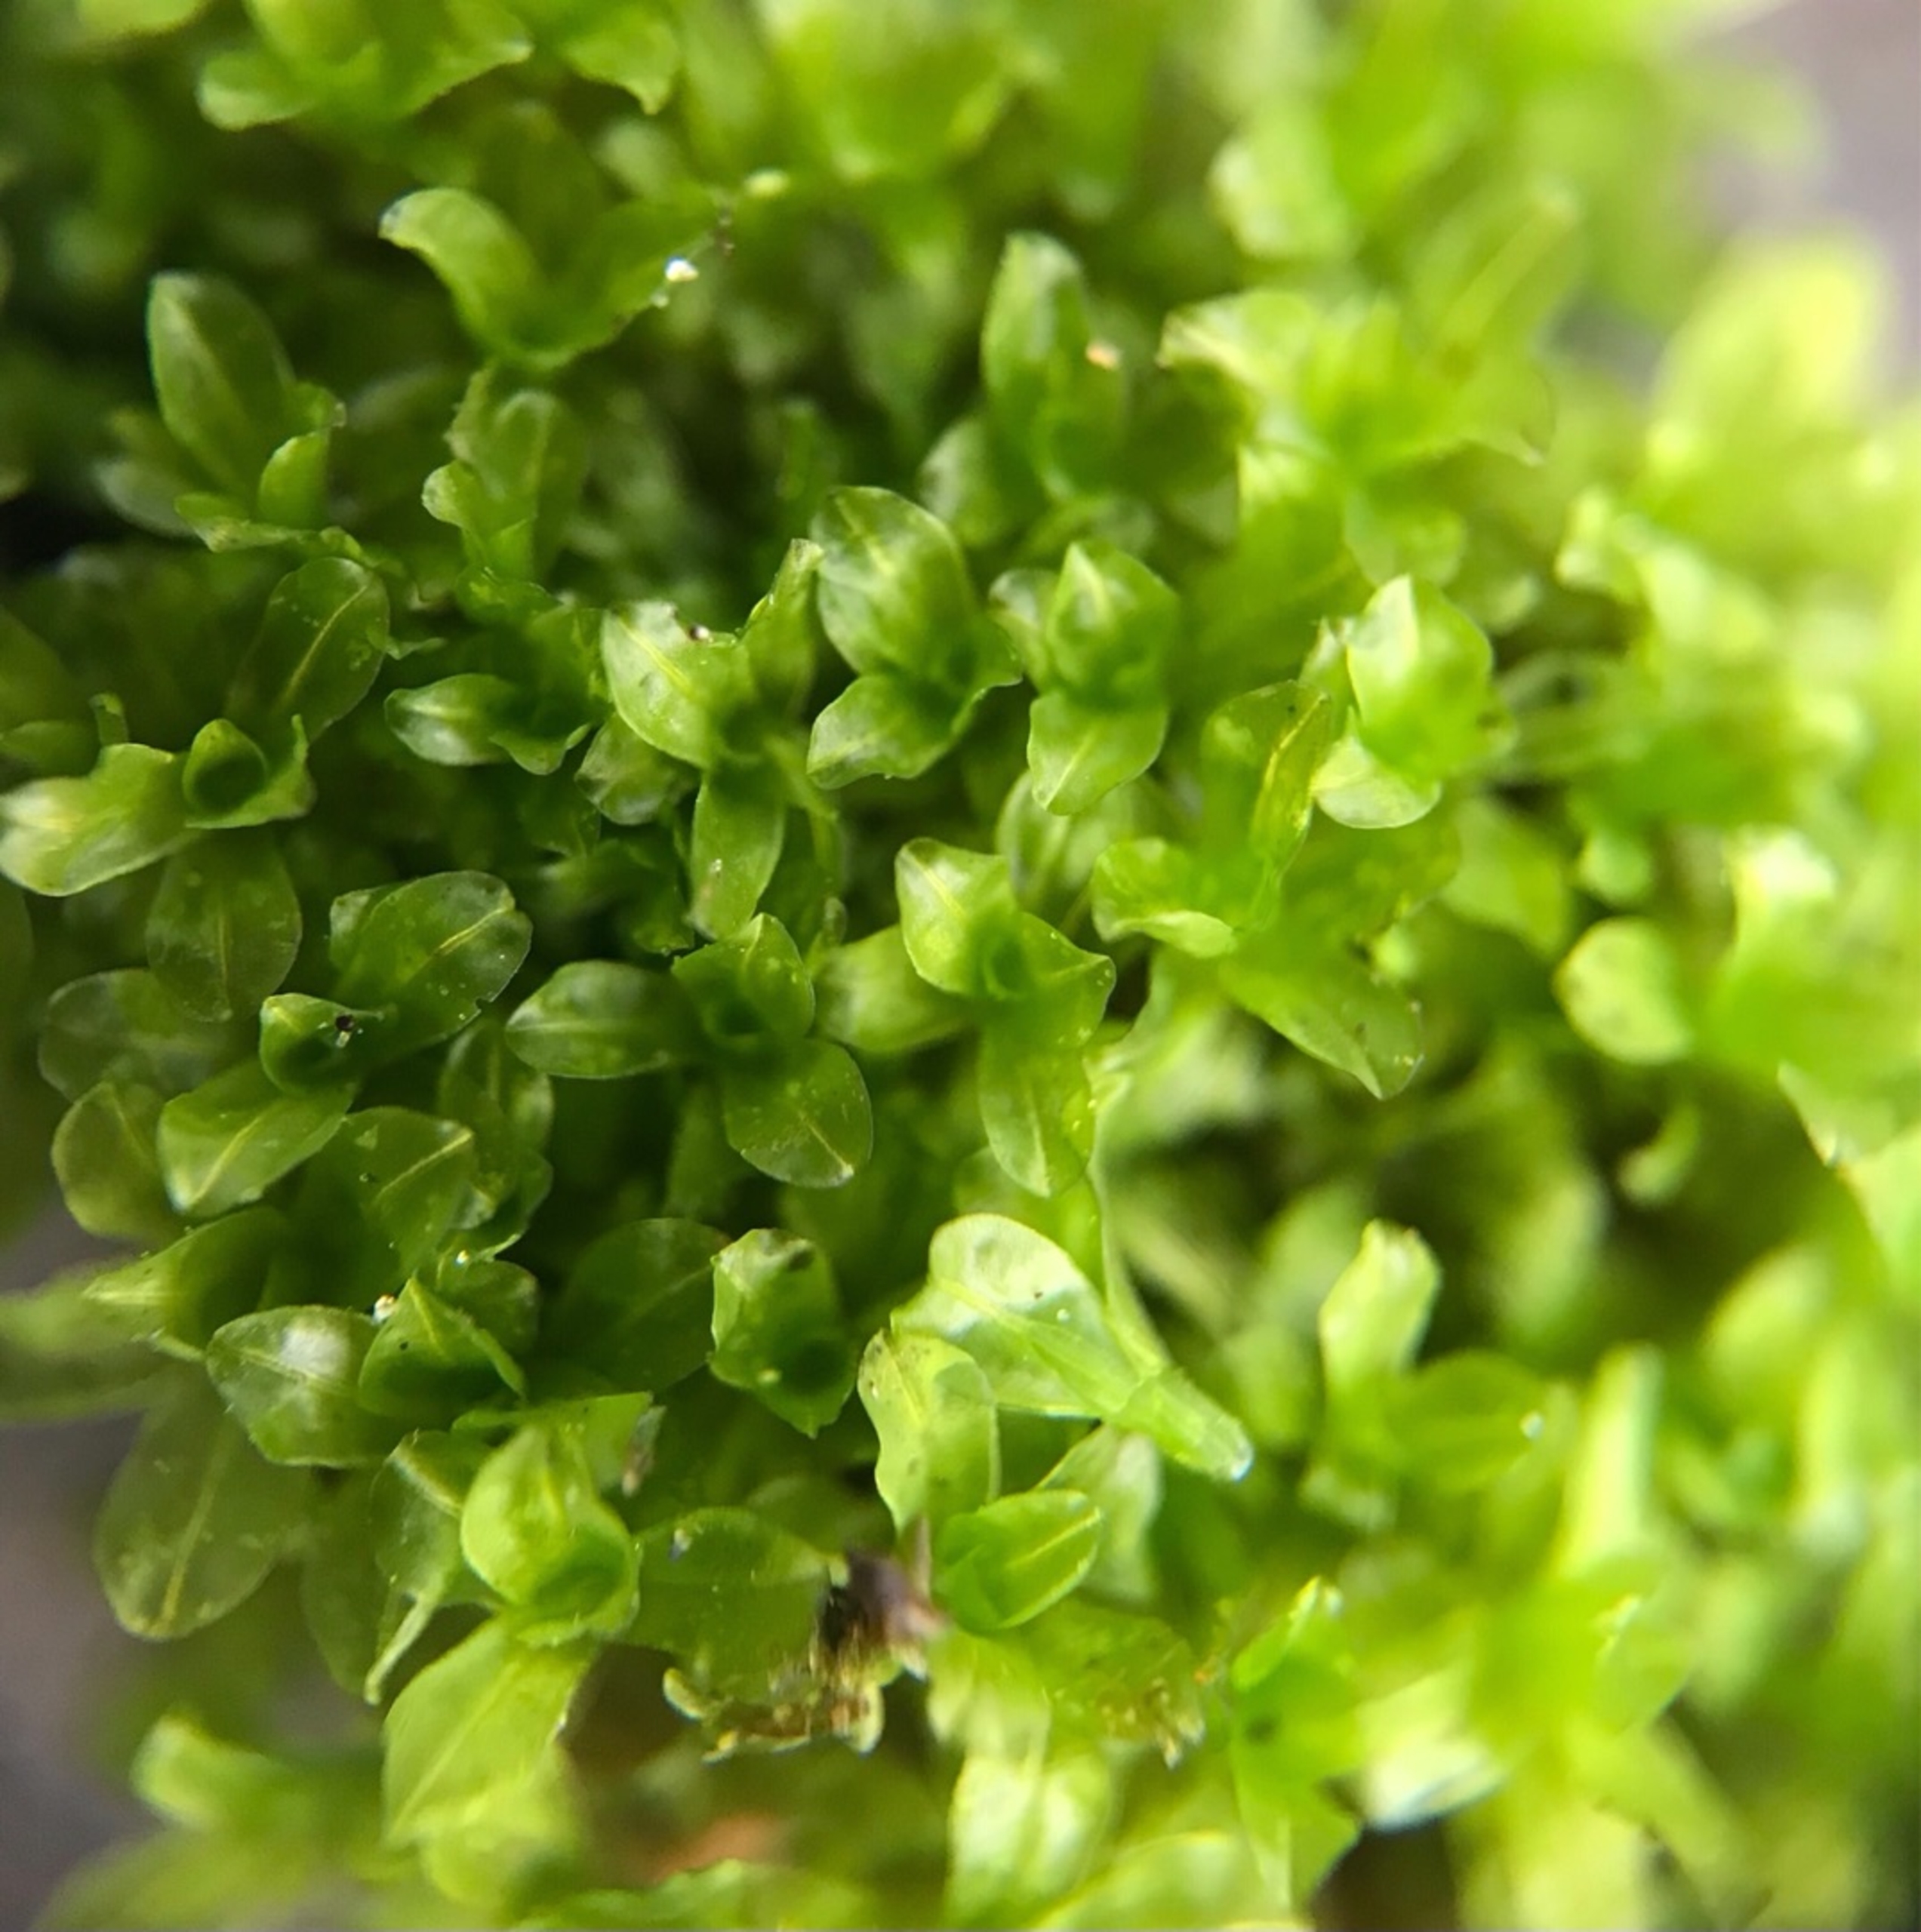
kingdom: Plantae
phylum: Bryophyta
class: Bryopsida
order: Pottiales
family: Pottiaceae
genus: Syntrichia
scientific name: Syntrichia latifolia
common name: Butbladet hårstjerne
